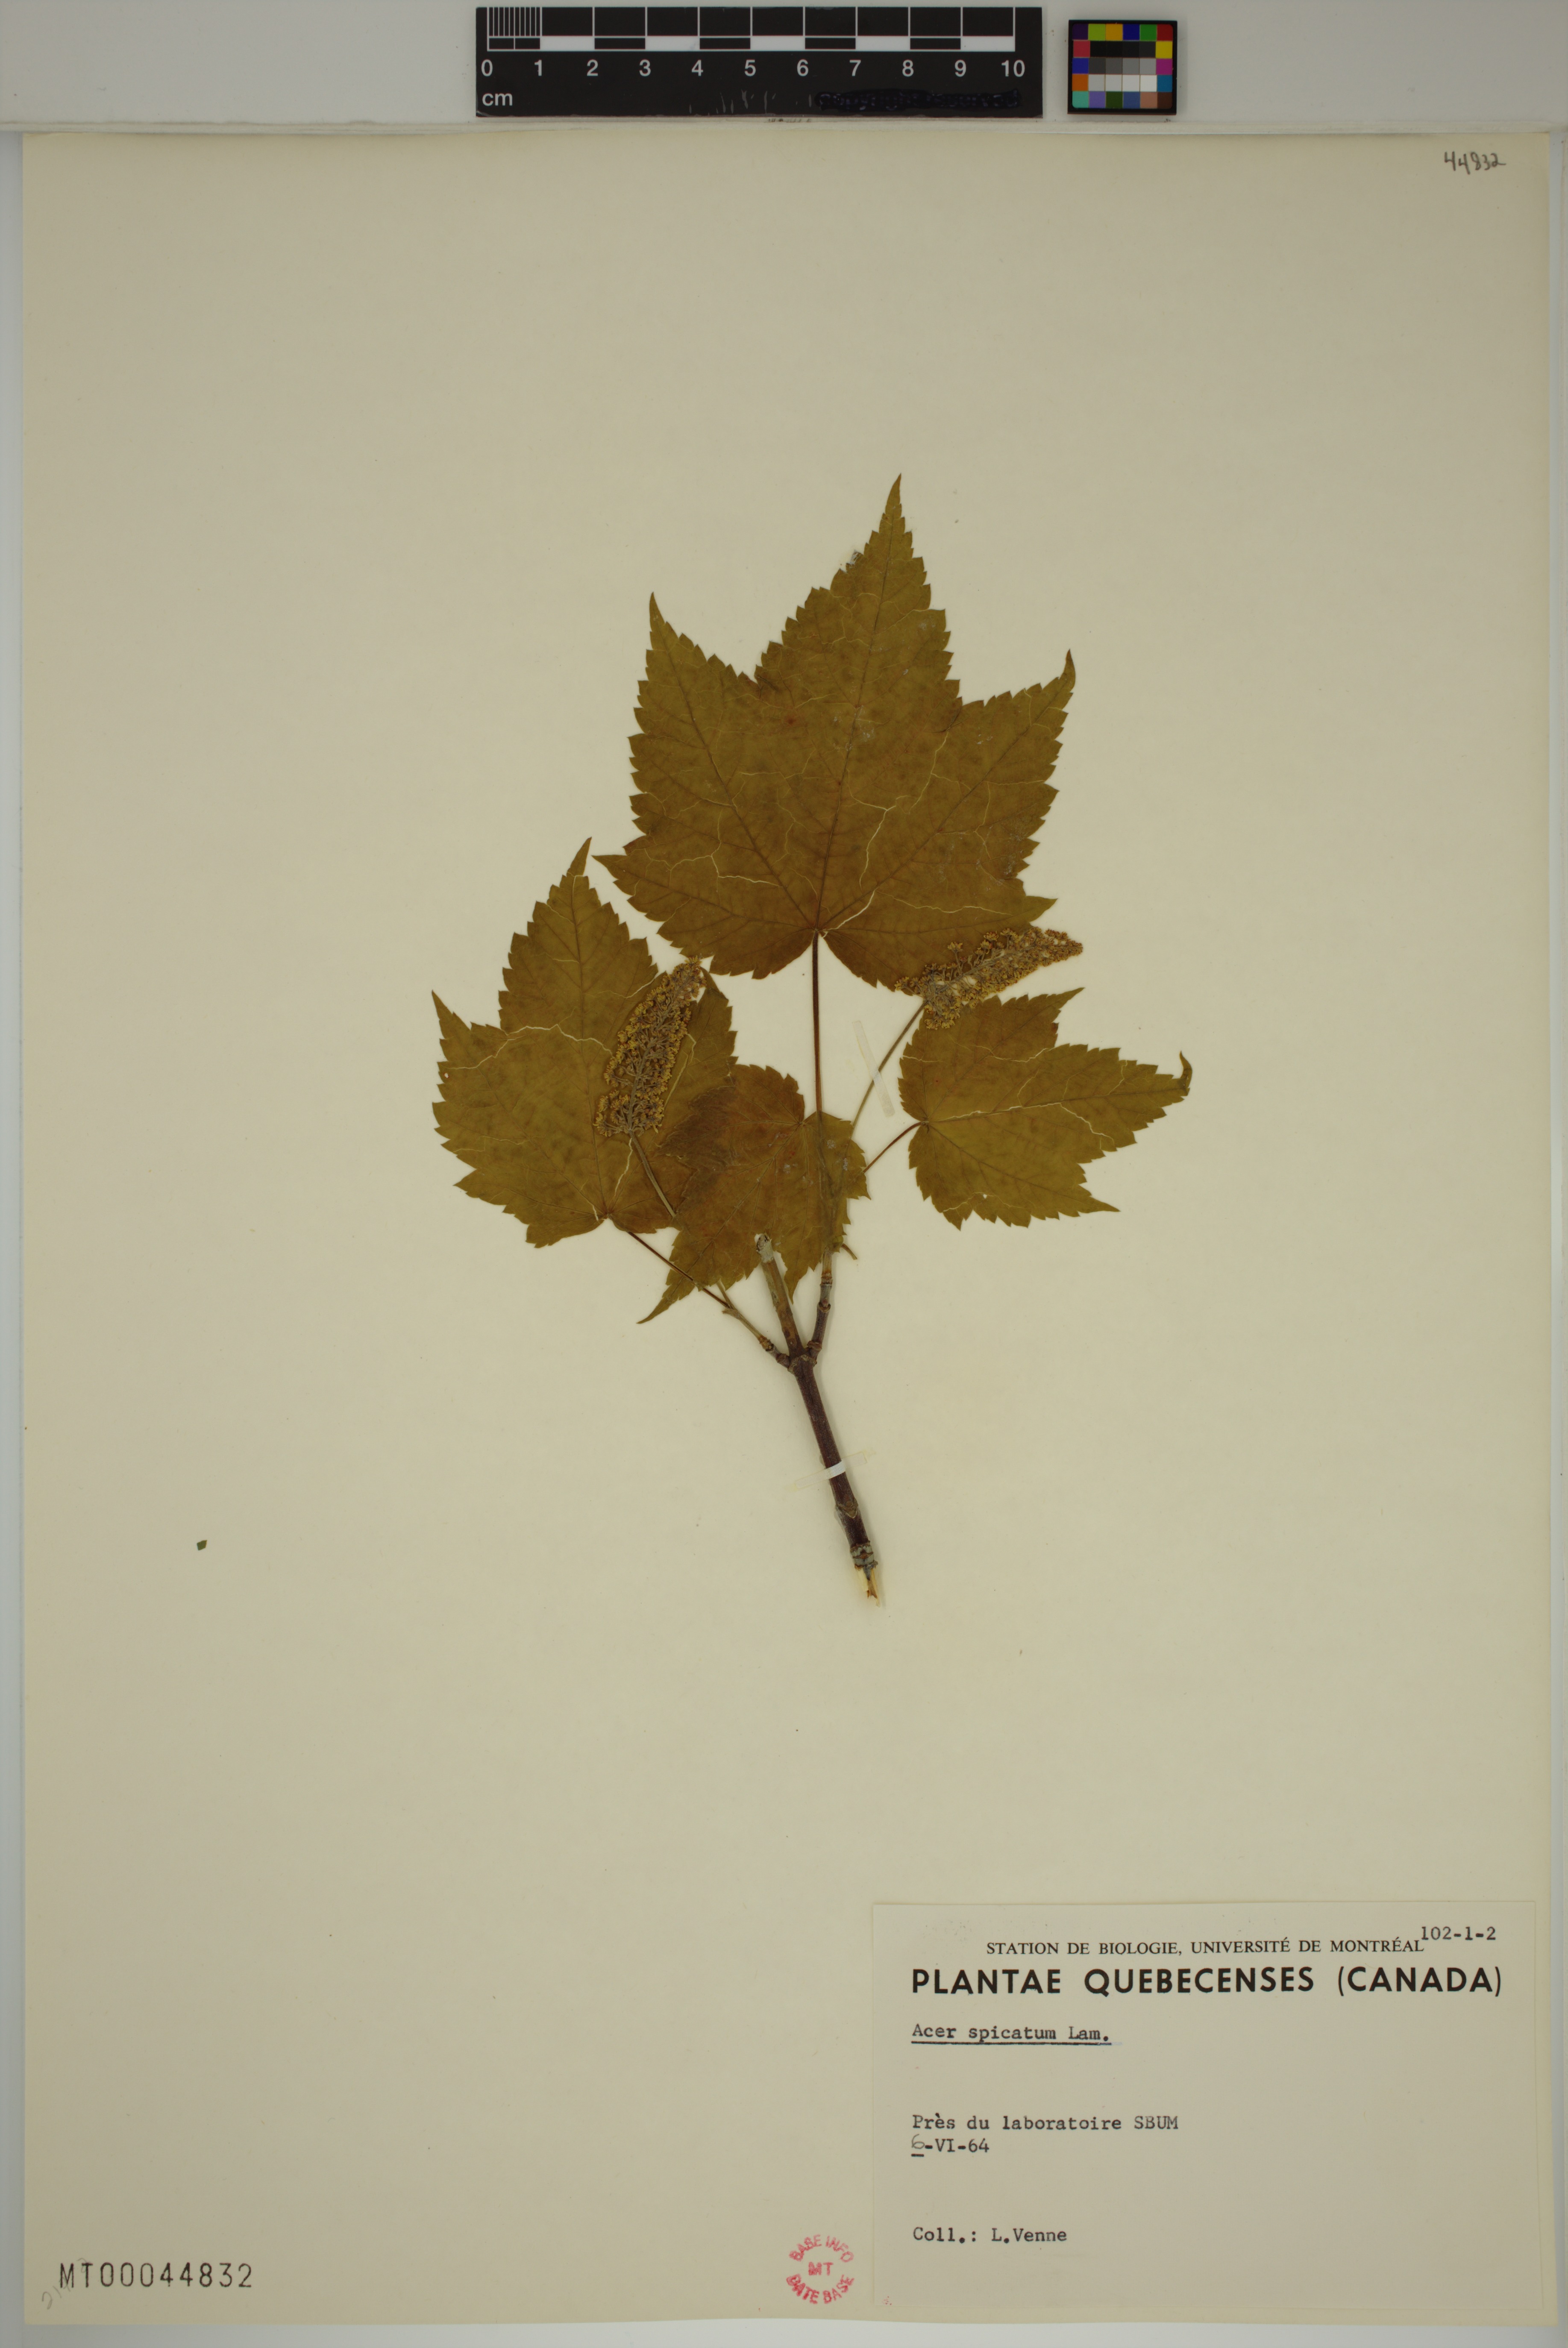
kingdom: Plantae
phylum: Tracheophyta
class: Magnoliopsida
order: Sapindales
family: Sapindaceae
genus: Acer
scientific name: Acer spicatum
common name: Mountain maple
